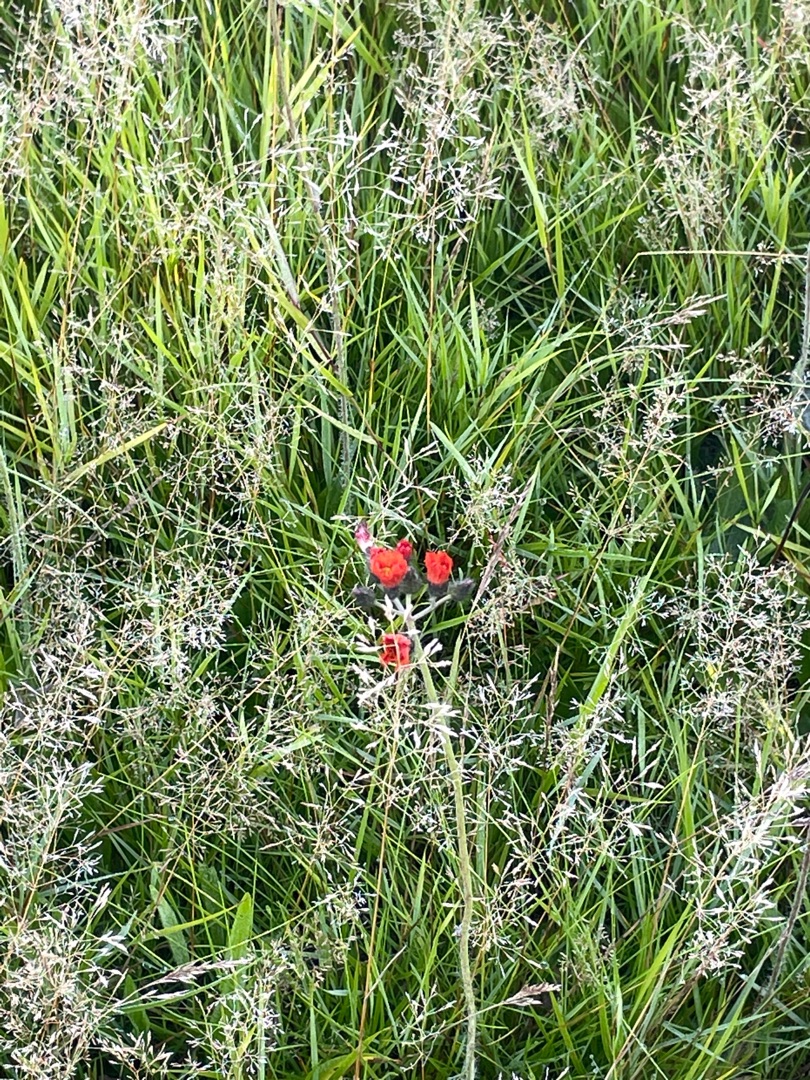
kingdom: Plantae
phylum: Tracheophyta
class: Magnoliopsida
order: Asterales
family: Asteraceae
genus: Pilosella
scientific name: Pilosella aurantiaca
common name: Pomerans-høgeurt (underart)
